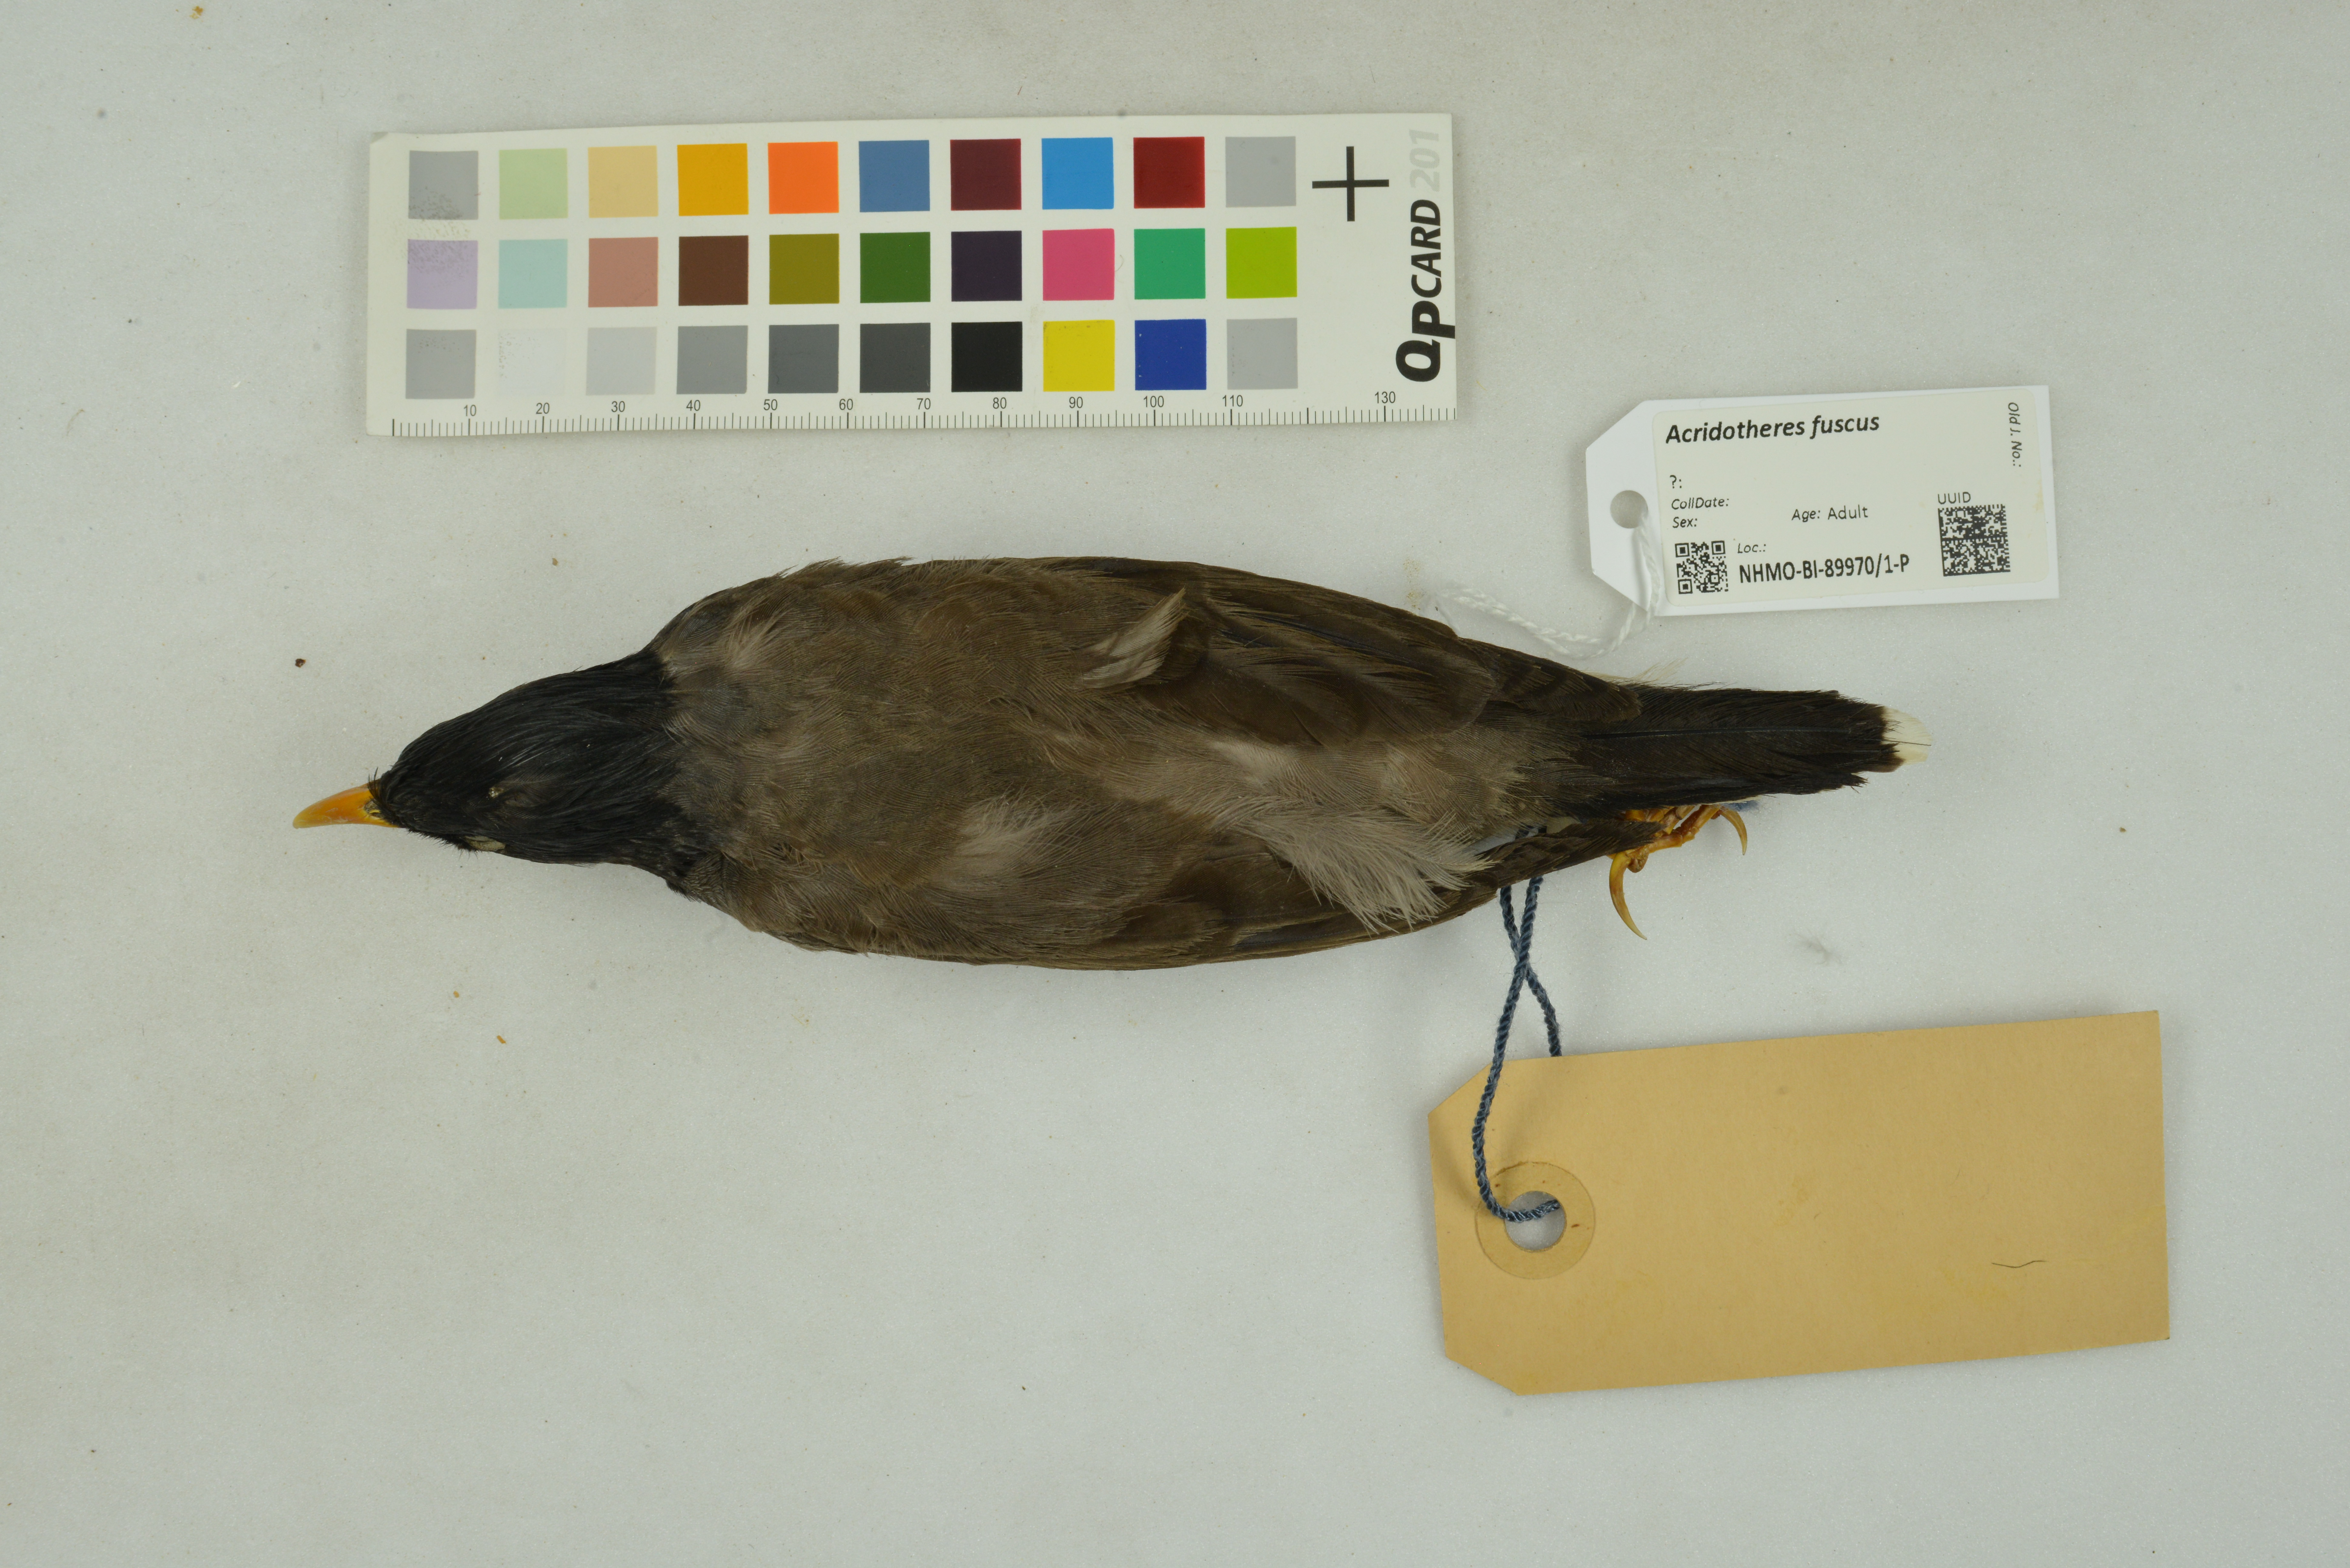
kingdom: Animalia
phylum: Chordata
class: Aves
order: Passeriformes
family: Sturnidae
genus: Acridotheres
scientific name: Acridotheres fuscus
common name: Jungle myna
